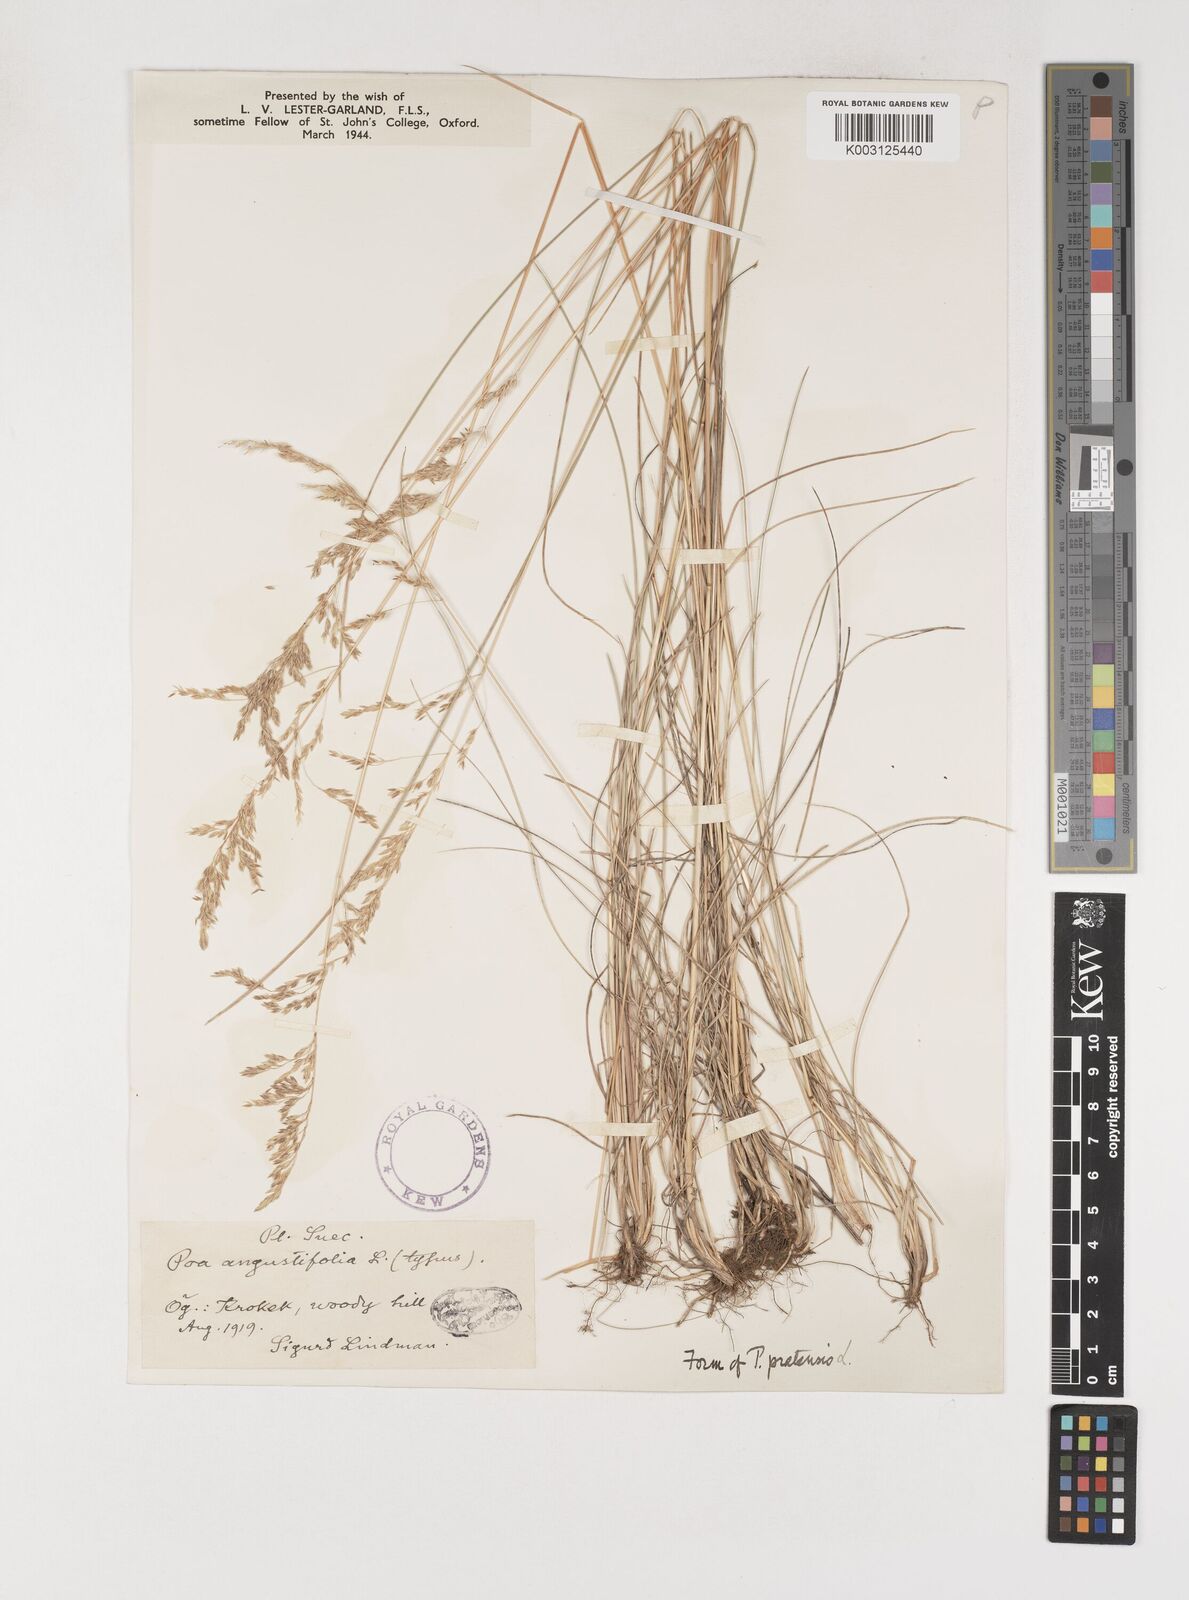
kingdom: Plantae
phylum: Tracheophyta
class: Liliopsida
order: Poales
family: Poaceae
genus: Poa
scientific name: Poa angustifolia
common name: Narrow-leaved meadow-grass
